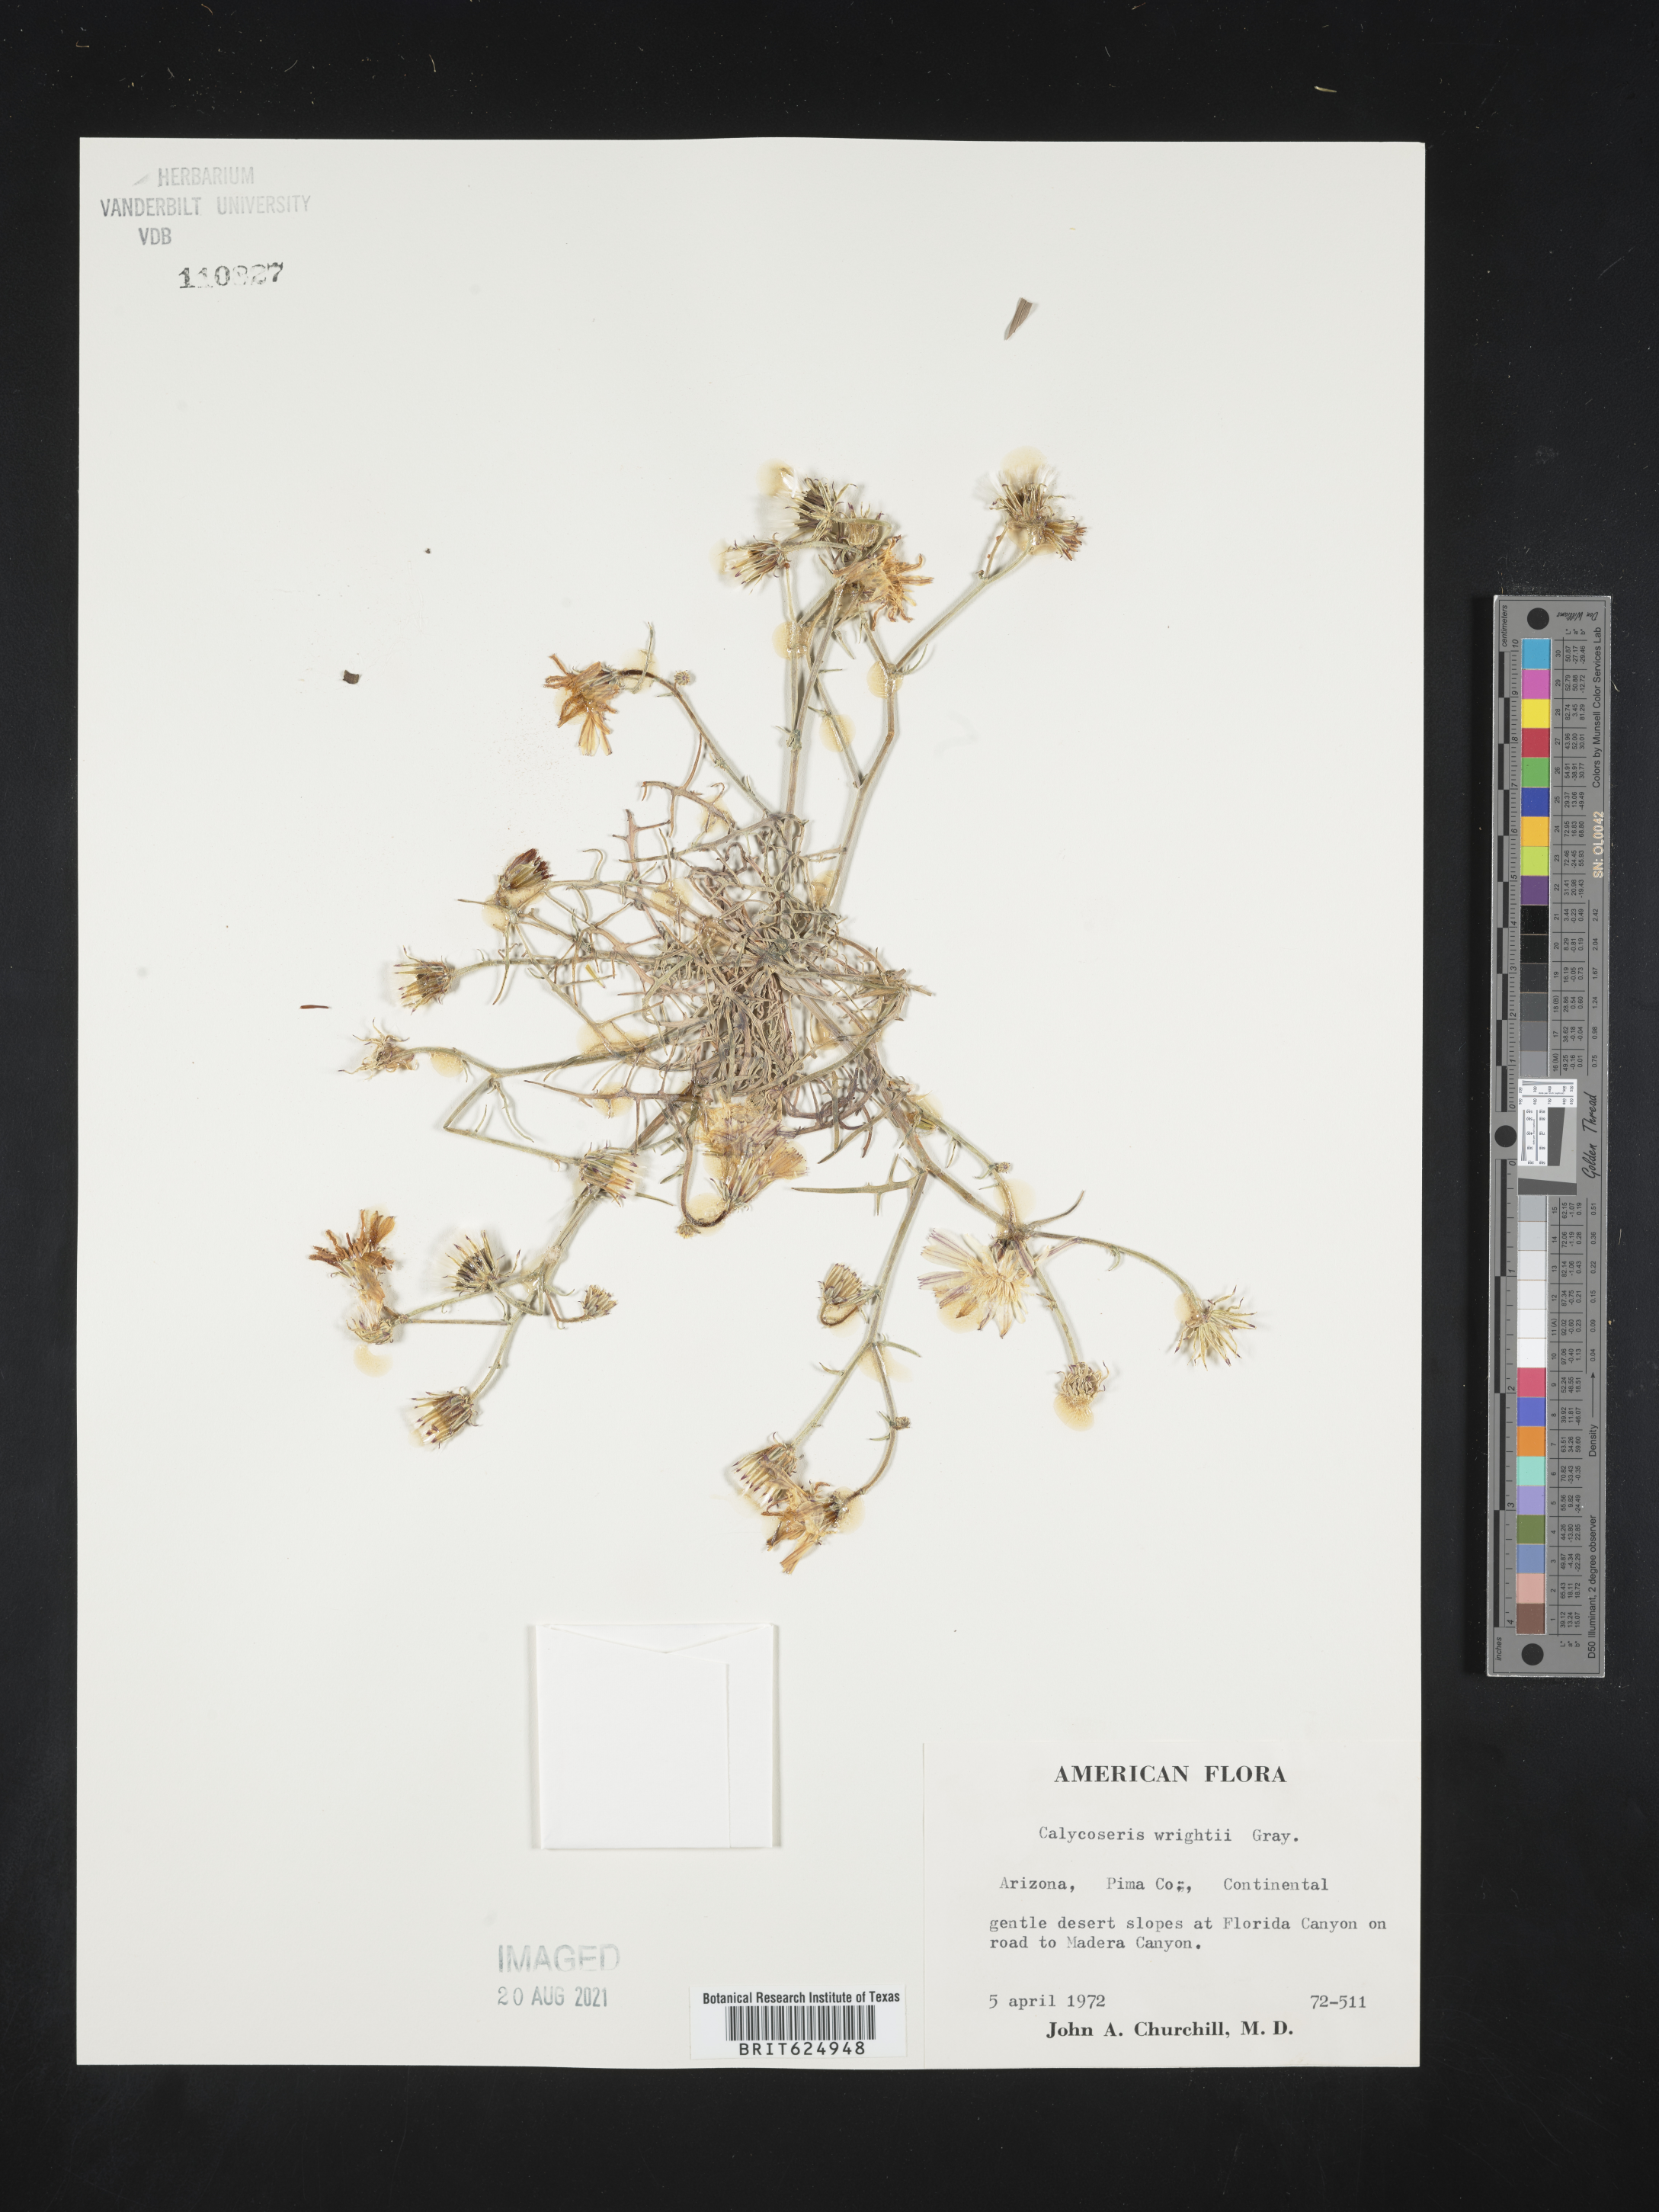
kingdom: Plantae
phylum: Tracheophyta
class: Magnoliopsida
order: Asterales
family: Asteraceae
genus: Calycoseris
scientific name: Calycoseris wrightii
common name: White tackstem
